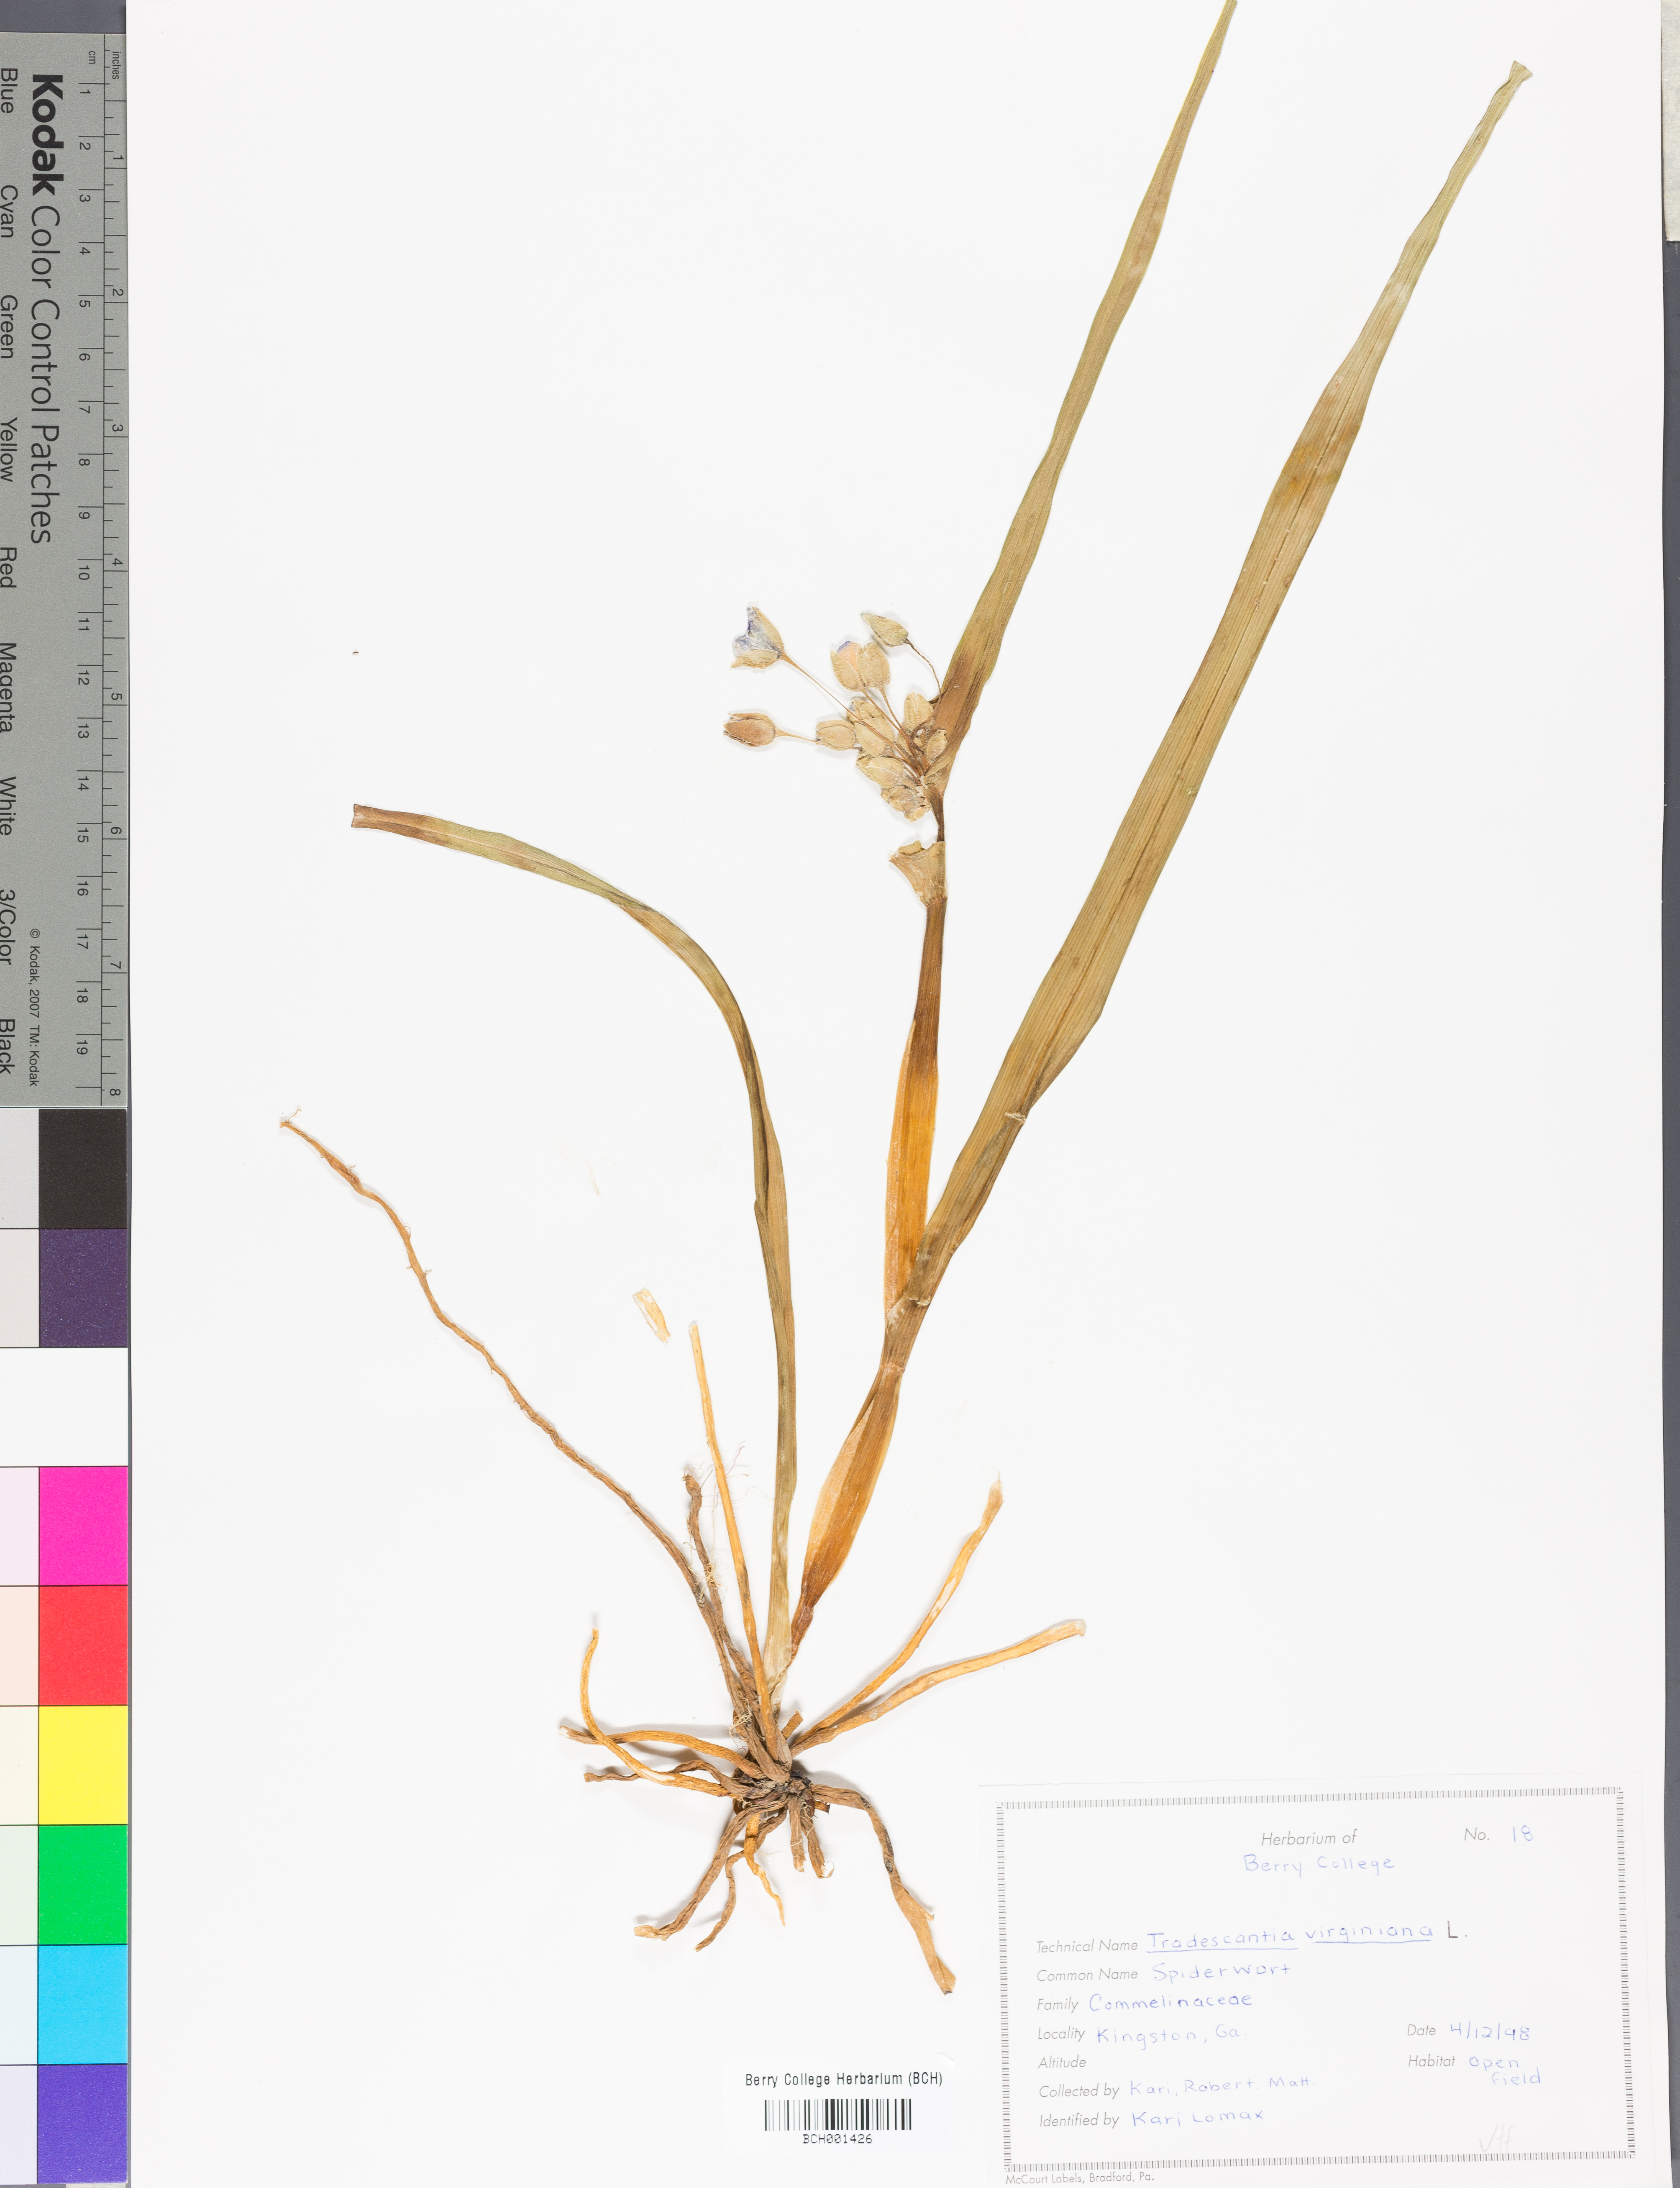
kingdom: Plantae
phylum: Tracheophyta
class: Liliopsida
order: Commelinales
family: Commelinaceae
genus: Tradescantia
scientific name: Tradescantia virginiana
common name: Spiderwort
